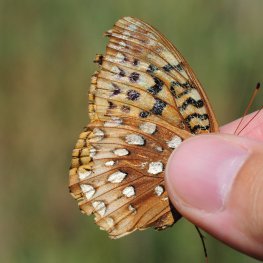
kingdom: Animalia
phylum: Arthropoda
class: Insecta
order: Lepidoptera
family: Nymphalidae
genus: Speyeria
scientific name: Speyeria cybele
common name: Great Spangled Fritillary
